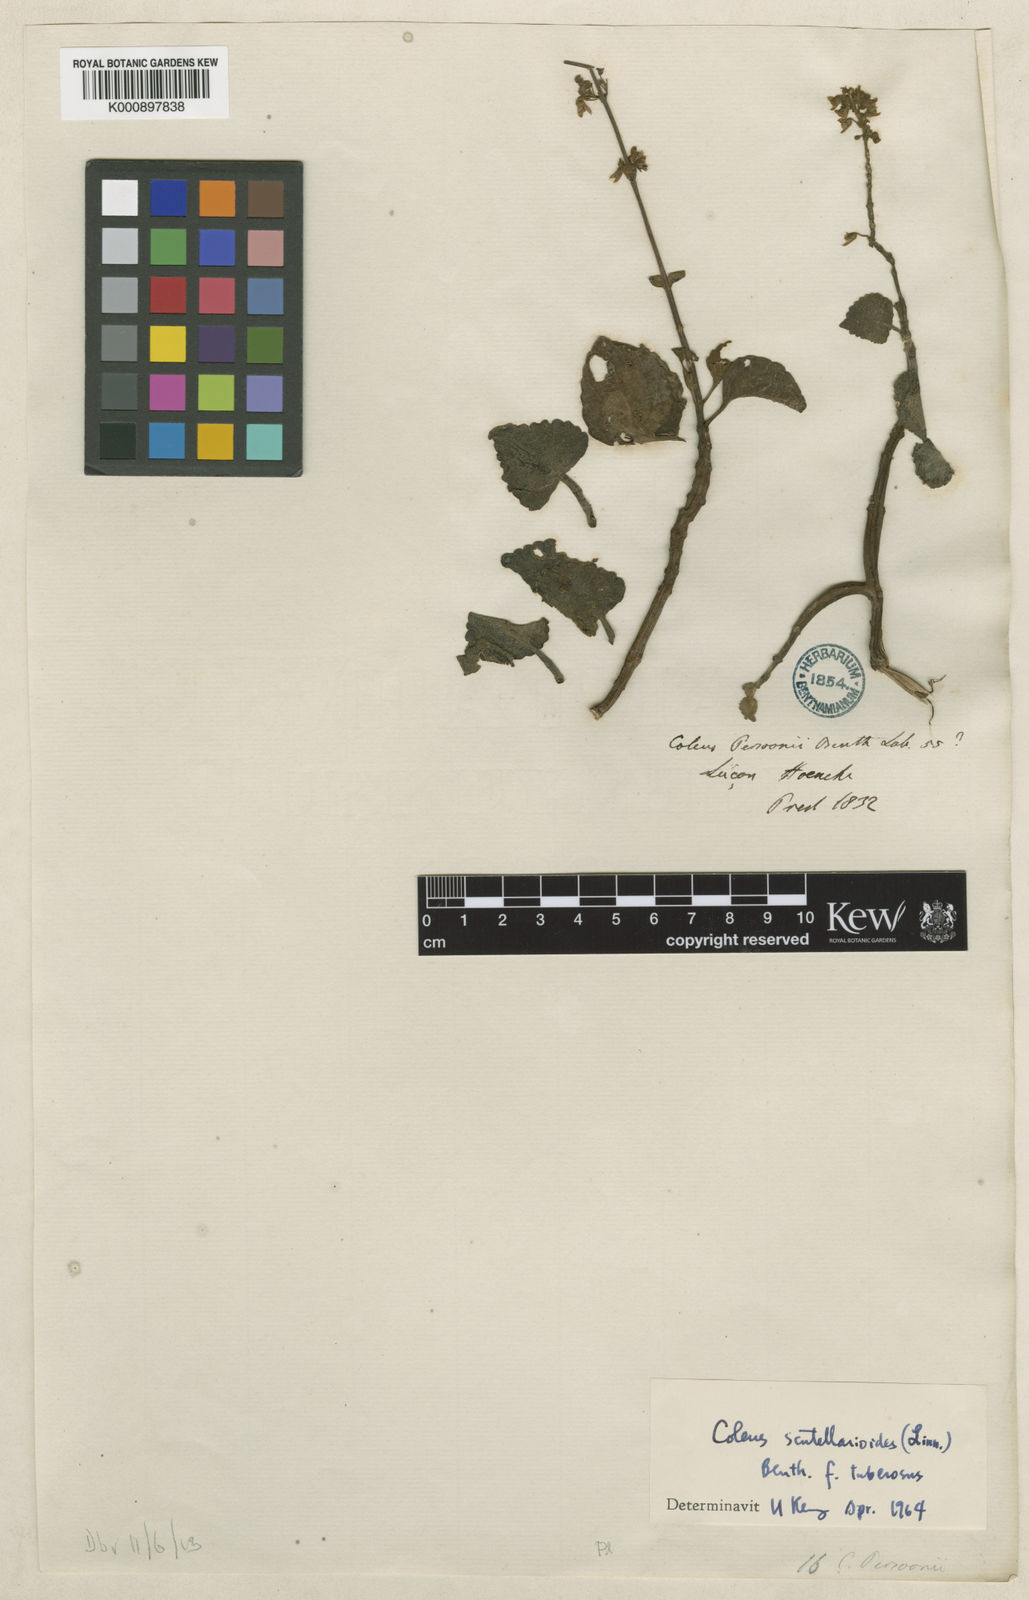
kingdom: Plantae
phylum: Tracheophyta
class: Magnoliopsida
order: Lamiales
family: Lamiaceae
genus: Coleus
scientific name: Coleus scutellarioides
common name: Coleus
